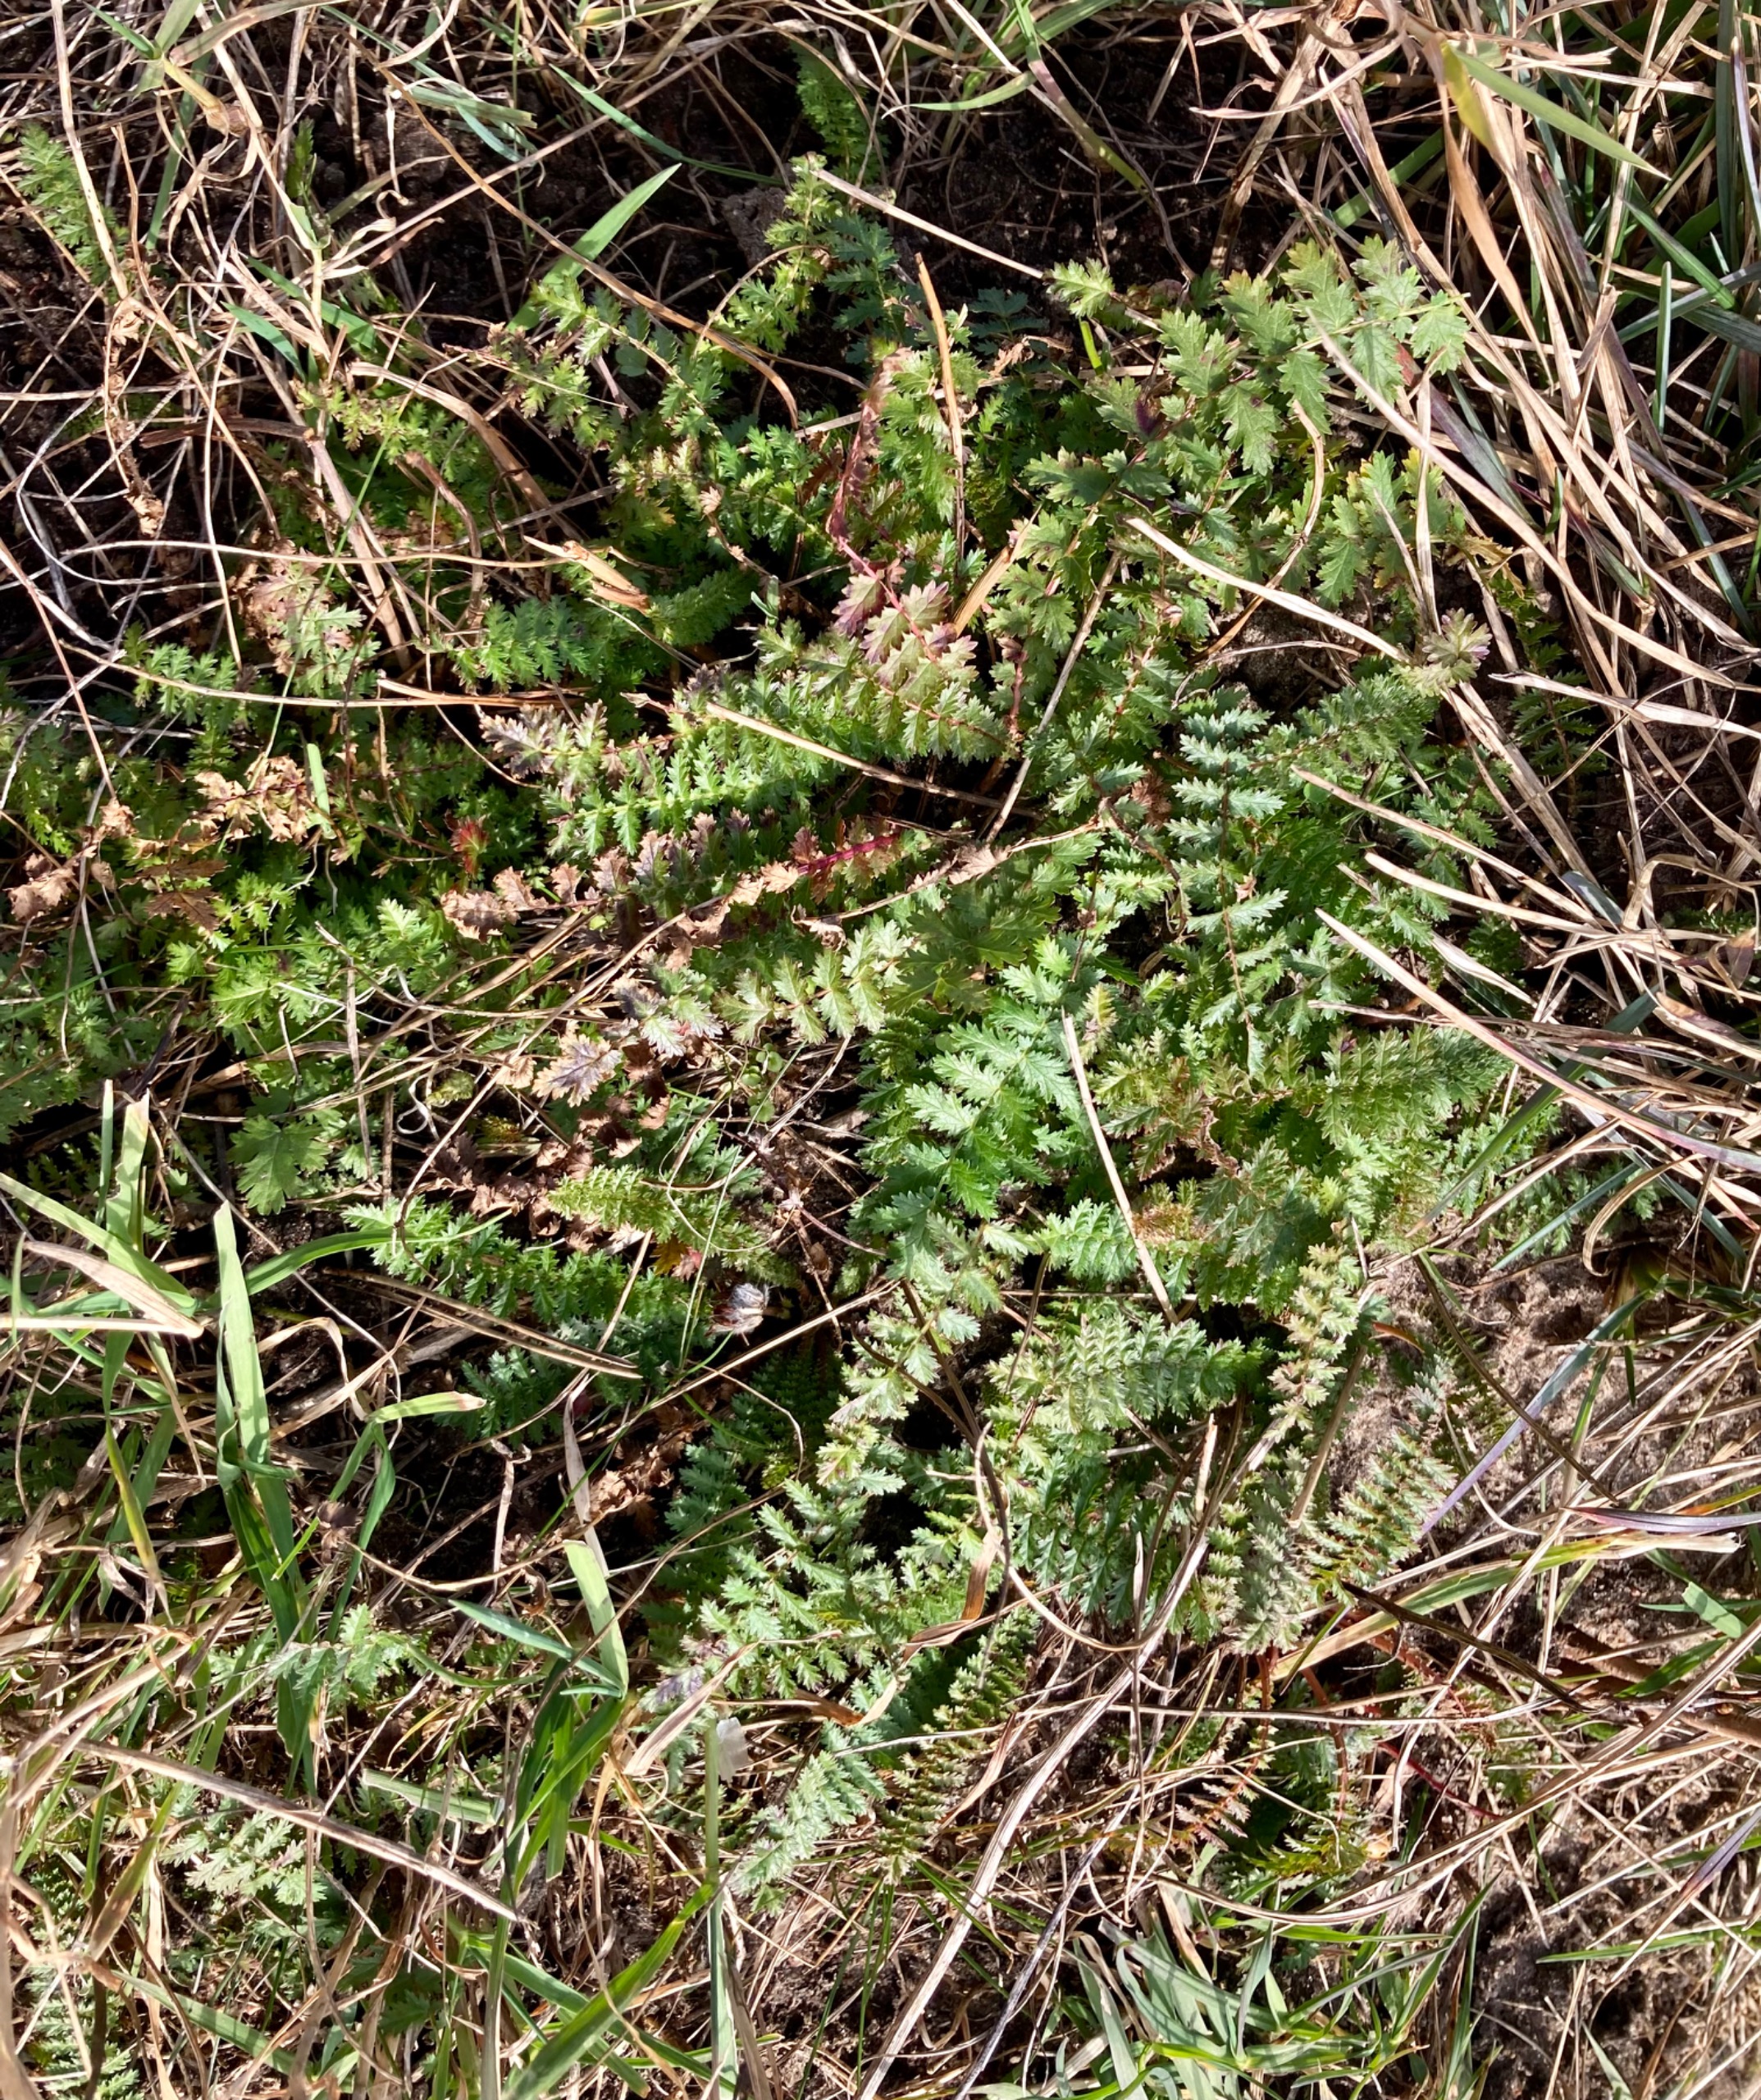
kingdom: Plantae
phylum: Tracheophyta
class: Magnoliopsida
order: Rosales
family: Rosaceae
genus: Filipendula
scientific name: Filipendula vulgaris
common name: Knoldet mjødurt
